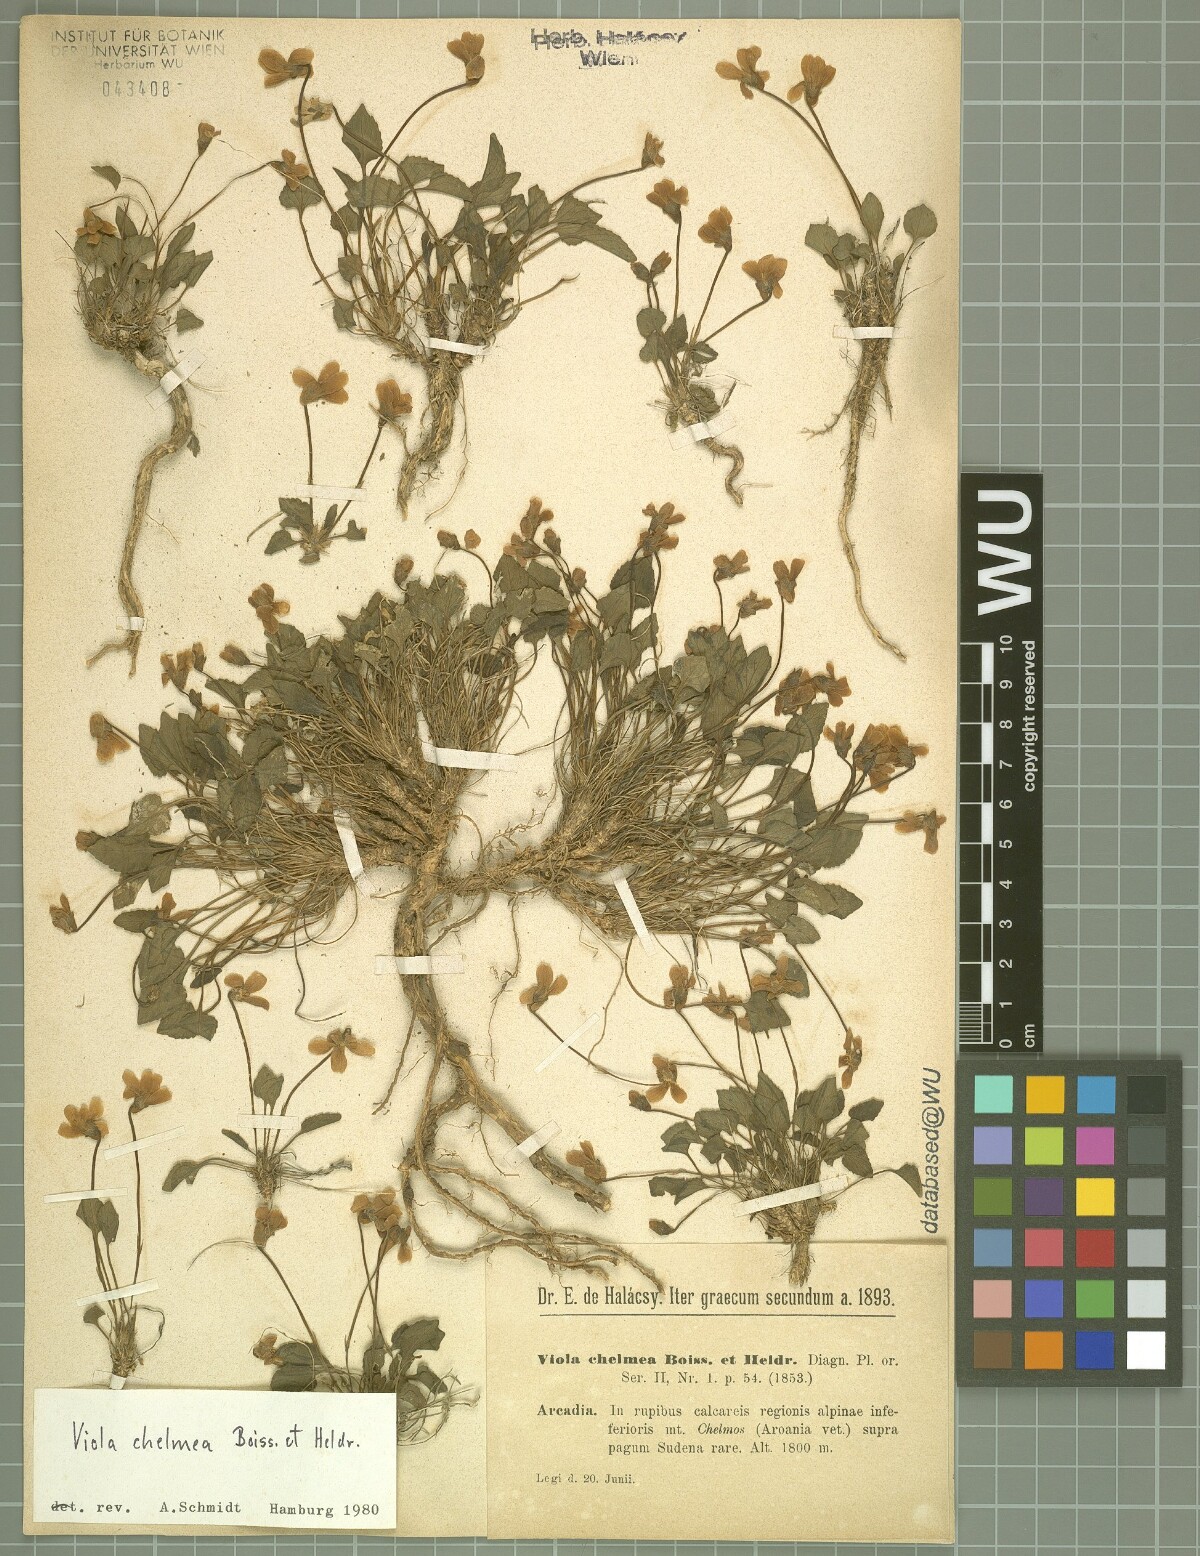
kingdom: Plantae
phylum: Tracheophyta
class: Magnoliopsida
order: Malpighiales
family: Violaceae
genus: Viola
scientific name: Viola chelmea
